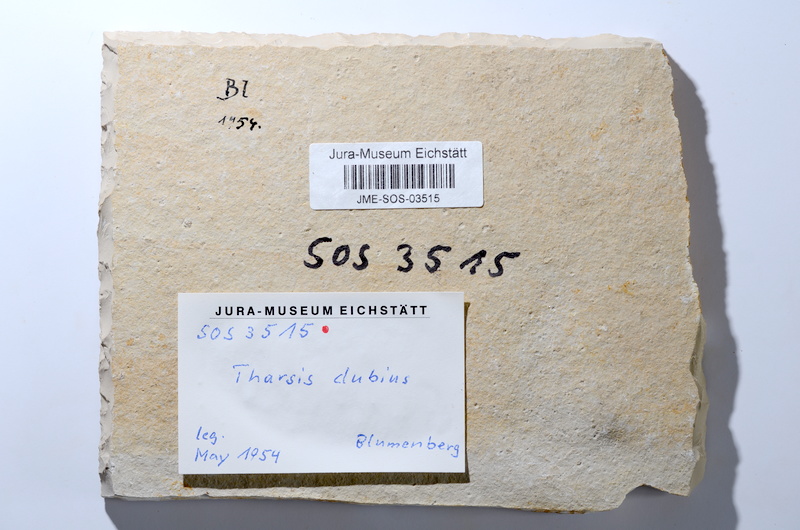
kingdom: Animalia
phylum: Chordata
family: Ascalaboidae
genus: Tharsis
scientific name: Tharsis dubius
